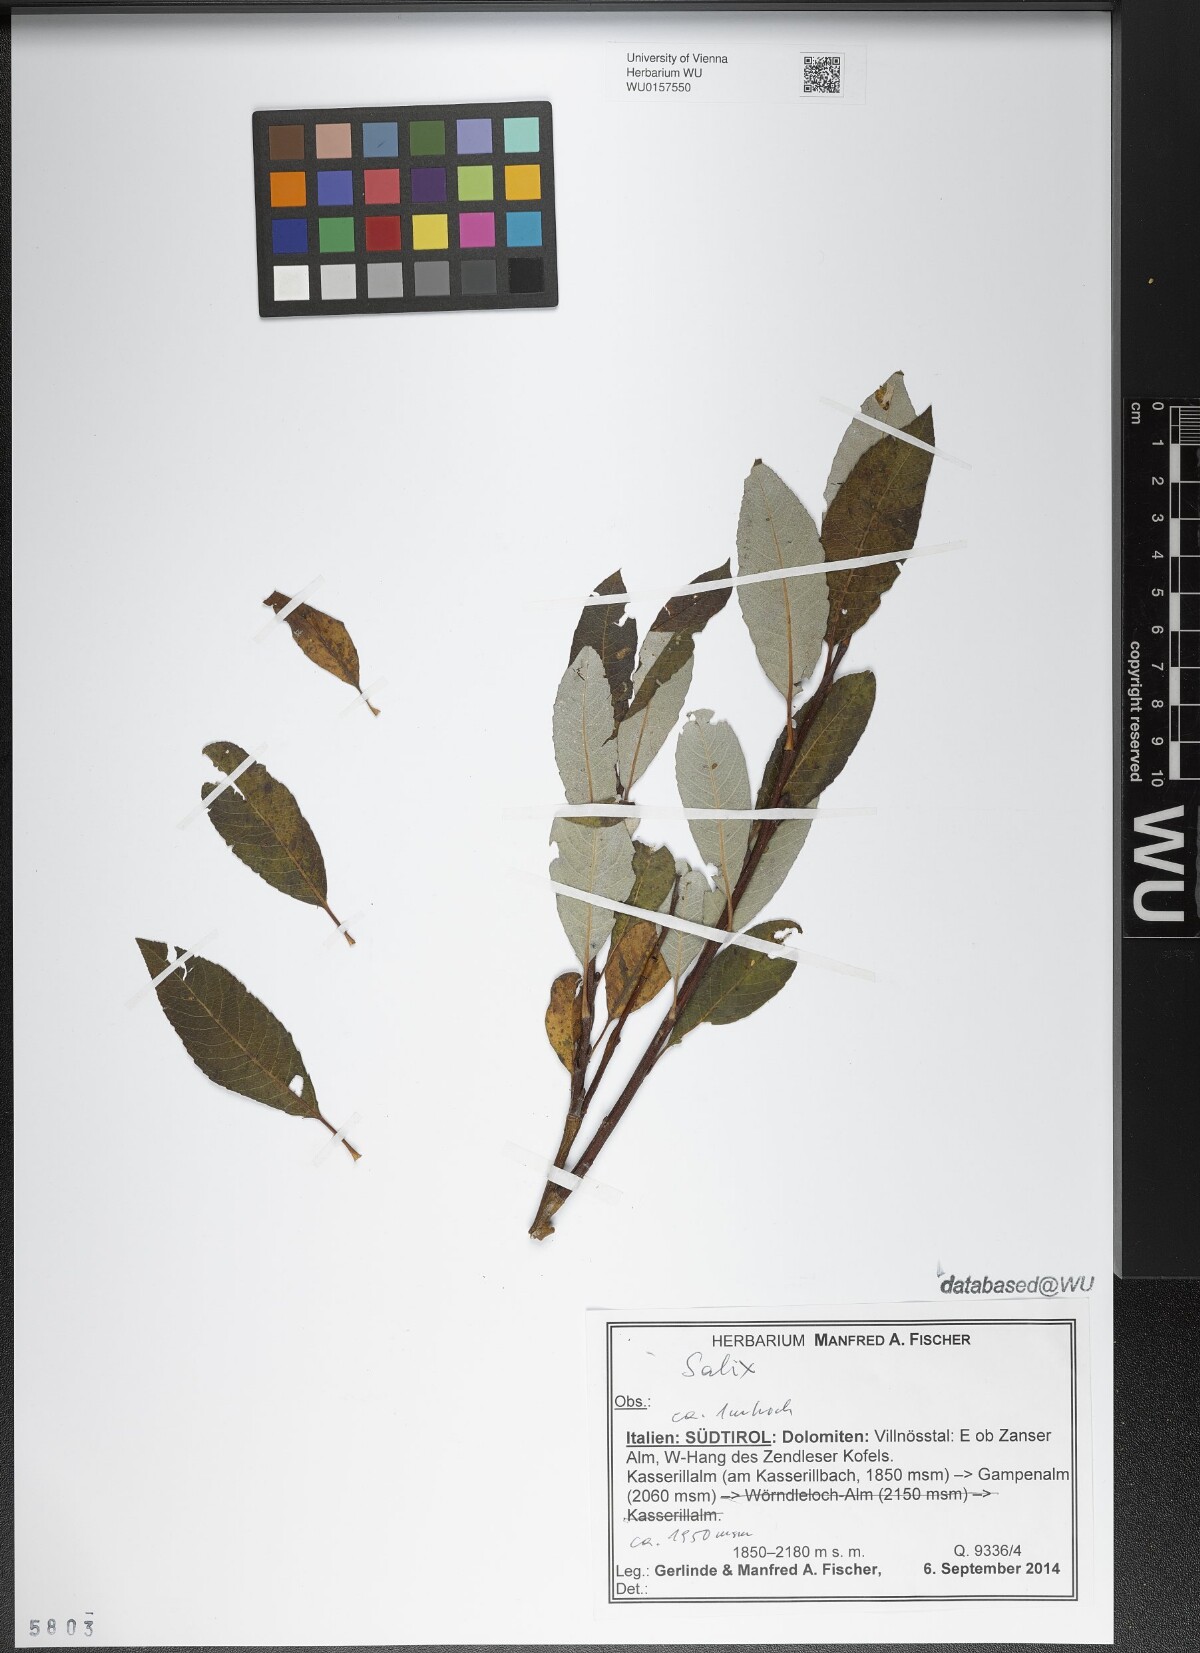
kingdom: Plantae
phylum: Tracheophyta
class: Magnoliopsida
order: Malpighiales
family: Salicaceae
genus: Salix
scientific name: Salix
